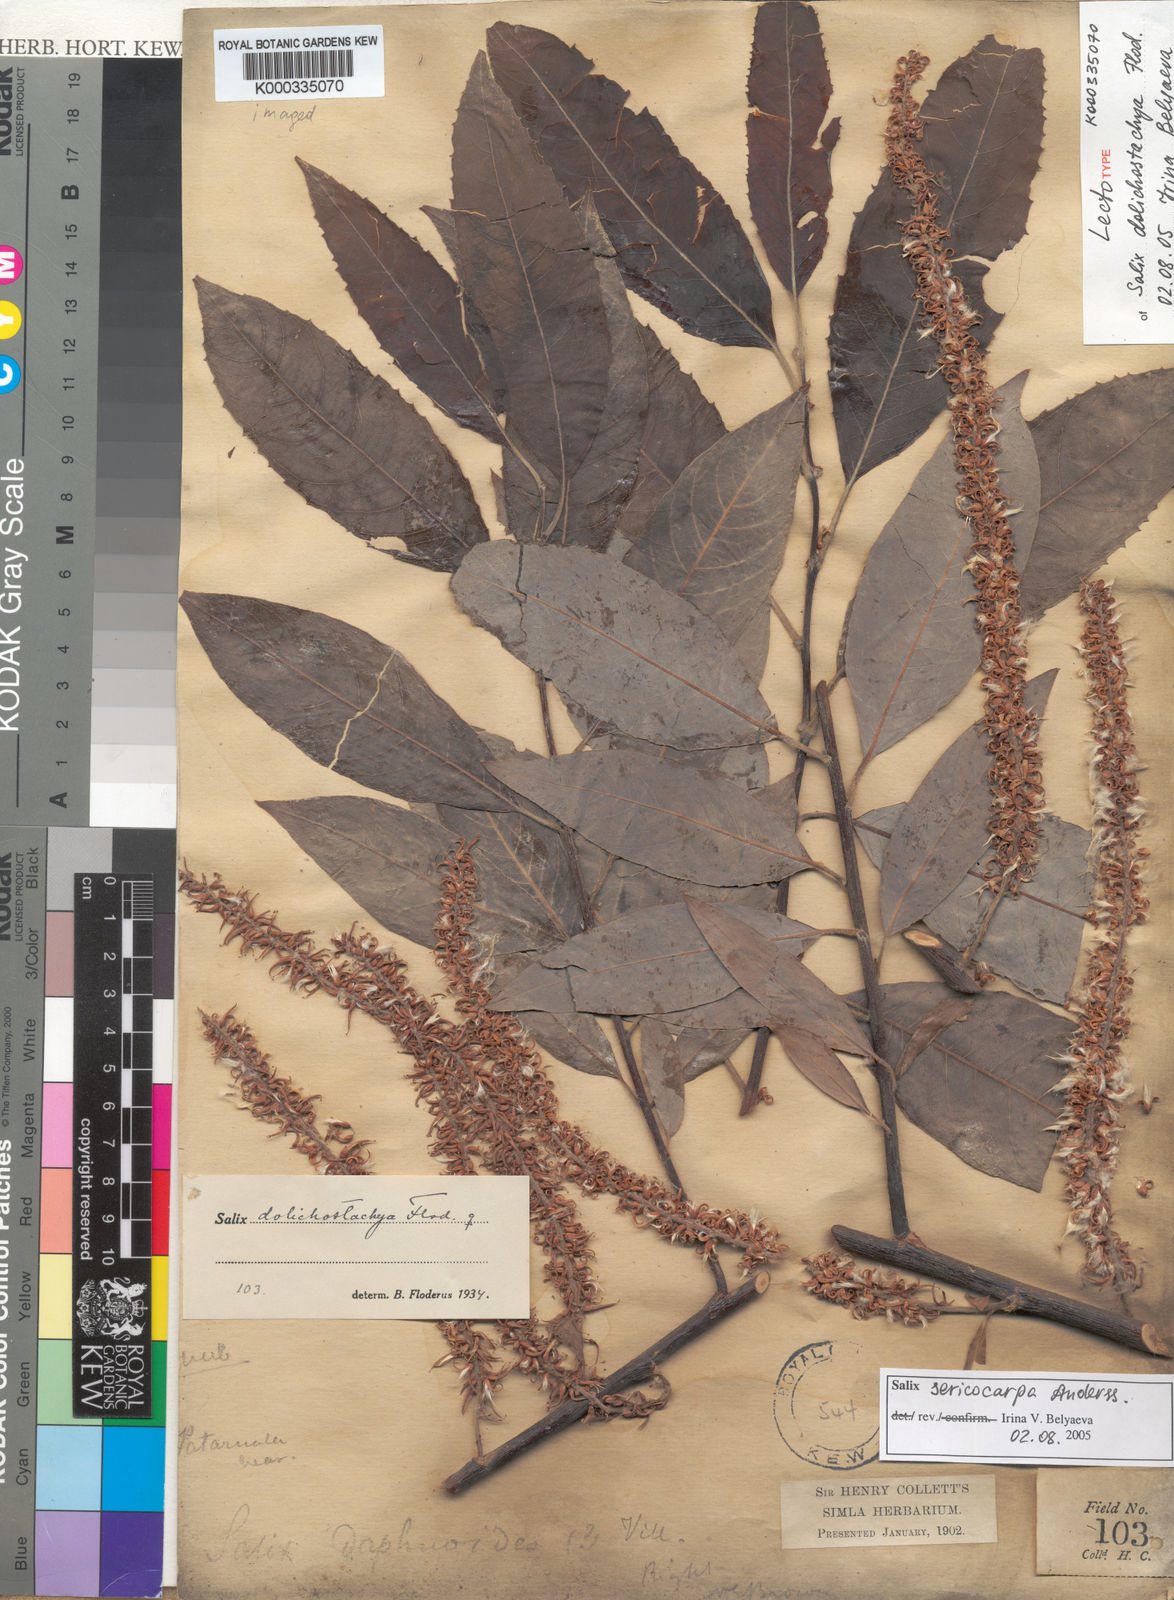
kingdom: Plantae
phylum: Tracheophyta
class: Magnoliopsida
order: Malpighiales
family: Salicaceae
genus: Salix
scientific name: Salix dolichostachya
